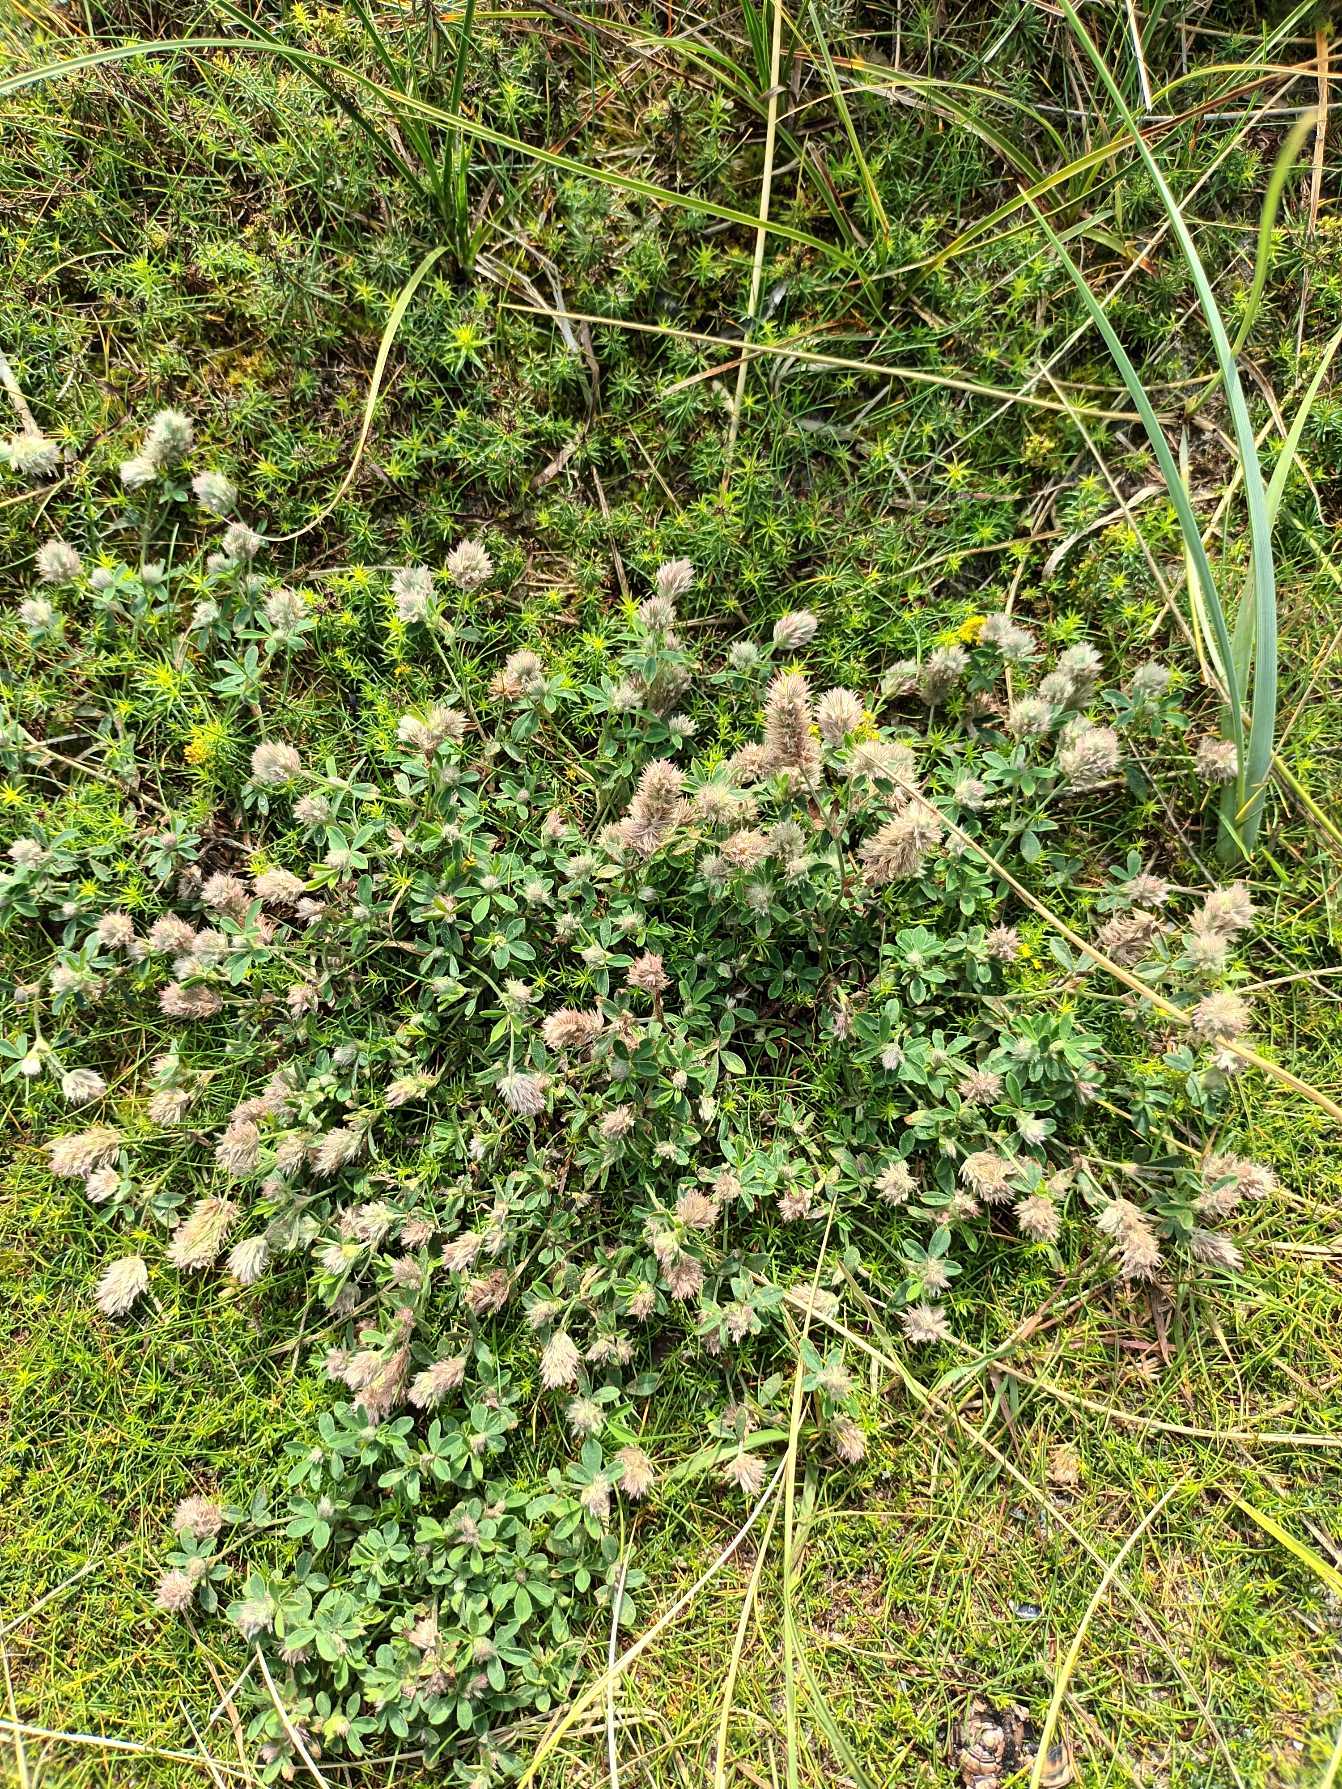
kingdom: Plantae
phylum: Tracheophyta
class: Magnoliopsida
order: Fabales
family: Fabaceae
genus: Trifolium
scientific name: Trifolium arvense
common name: Hare-kløver
